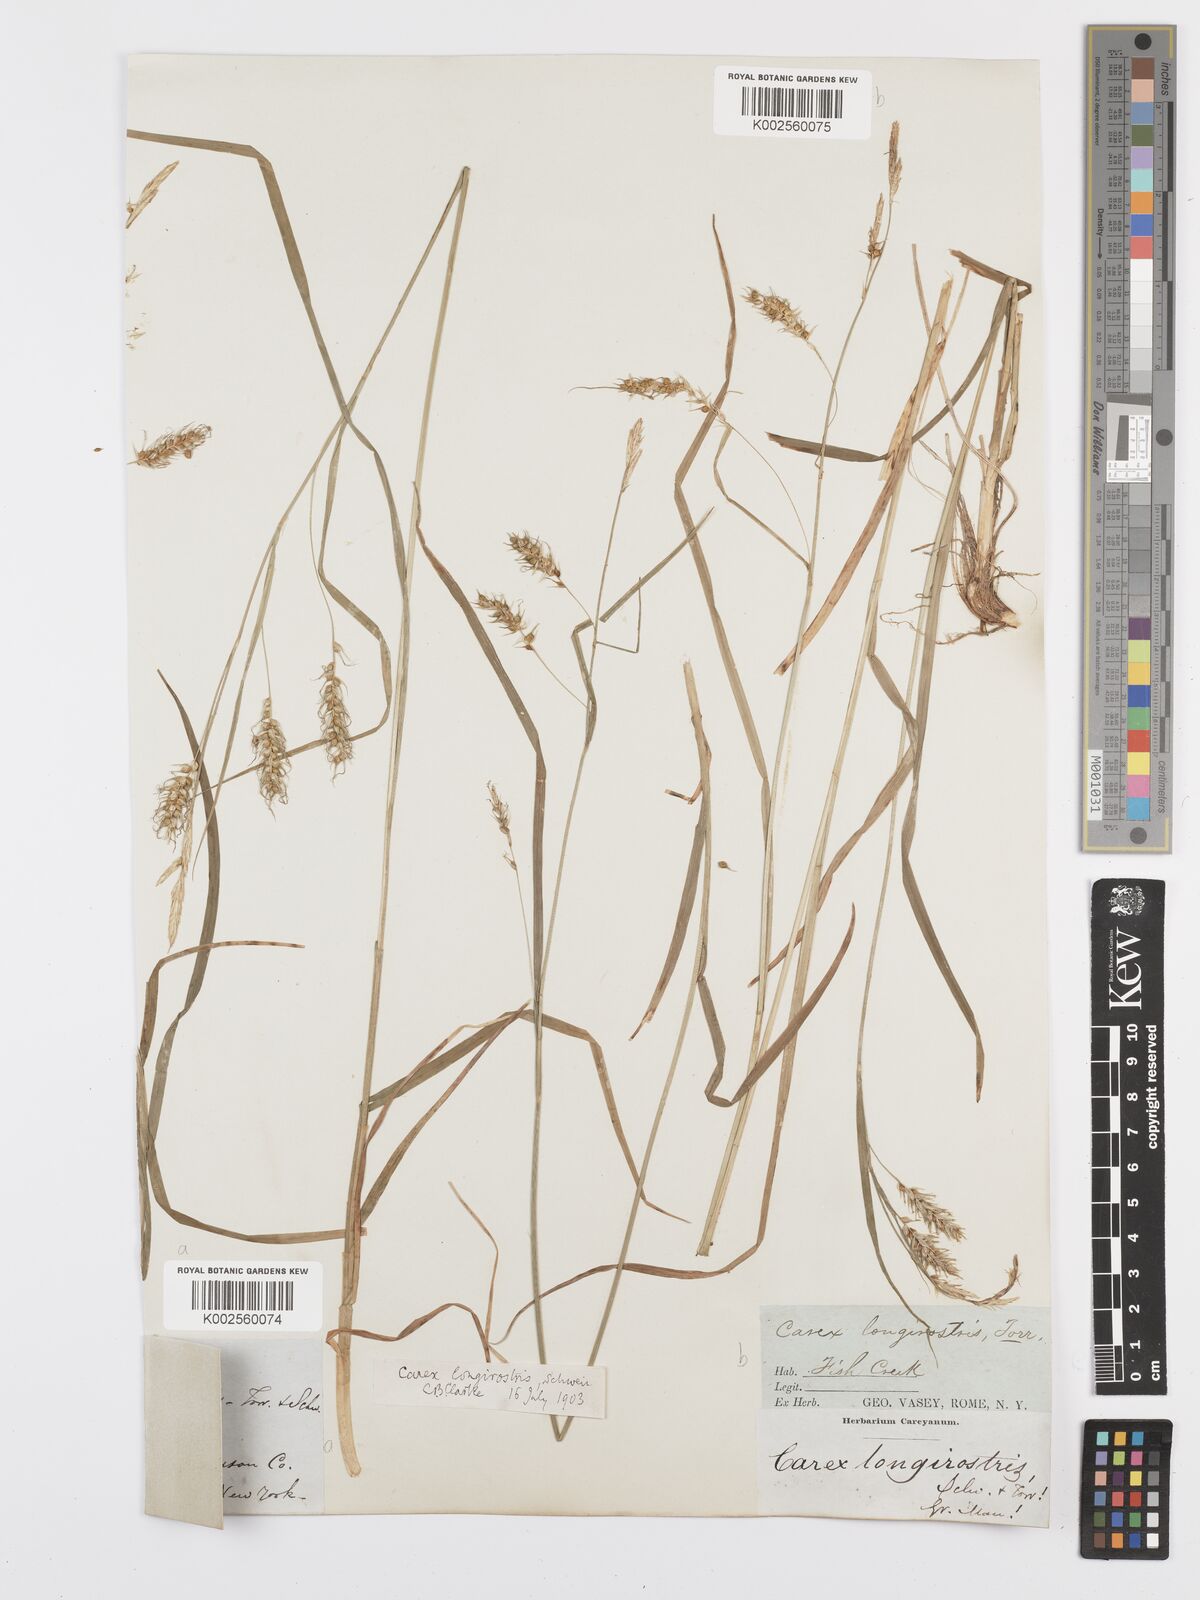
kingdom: Plantae
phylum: Tracheophyta
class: Liliopsida
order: Poales
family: Cyperaceae
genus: Carex
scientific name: Carex sprengelii
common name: Long-beaked sedge
